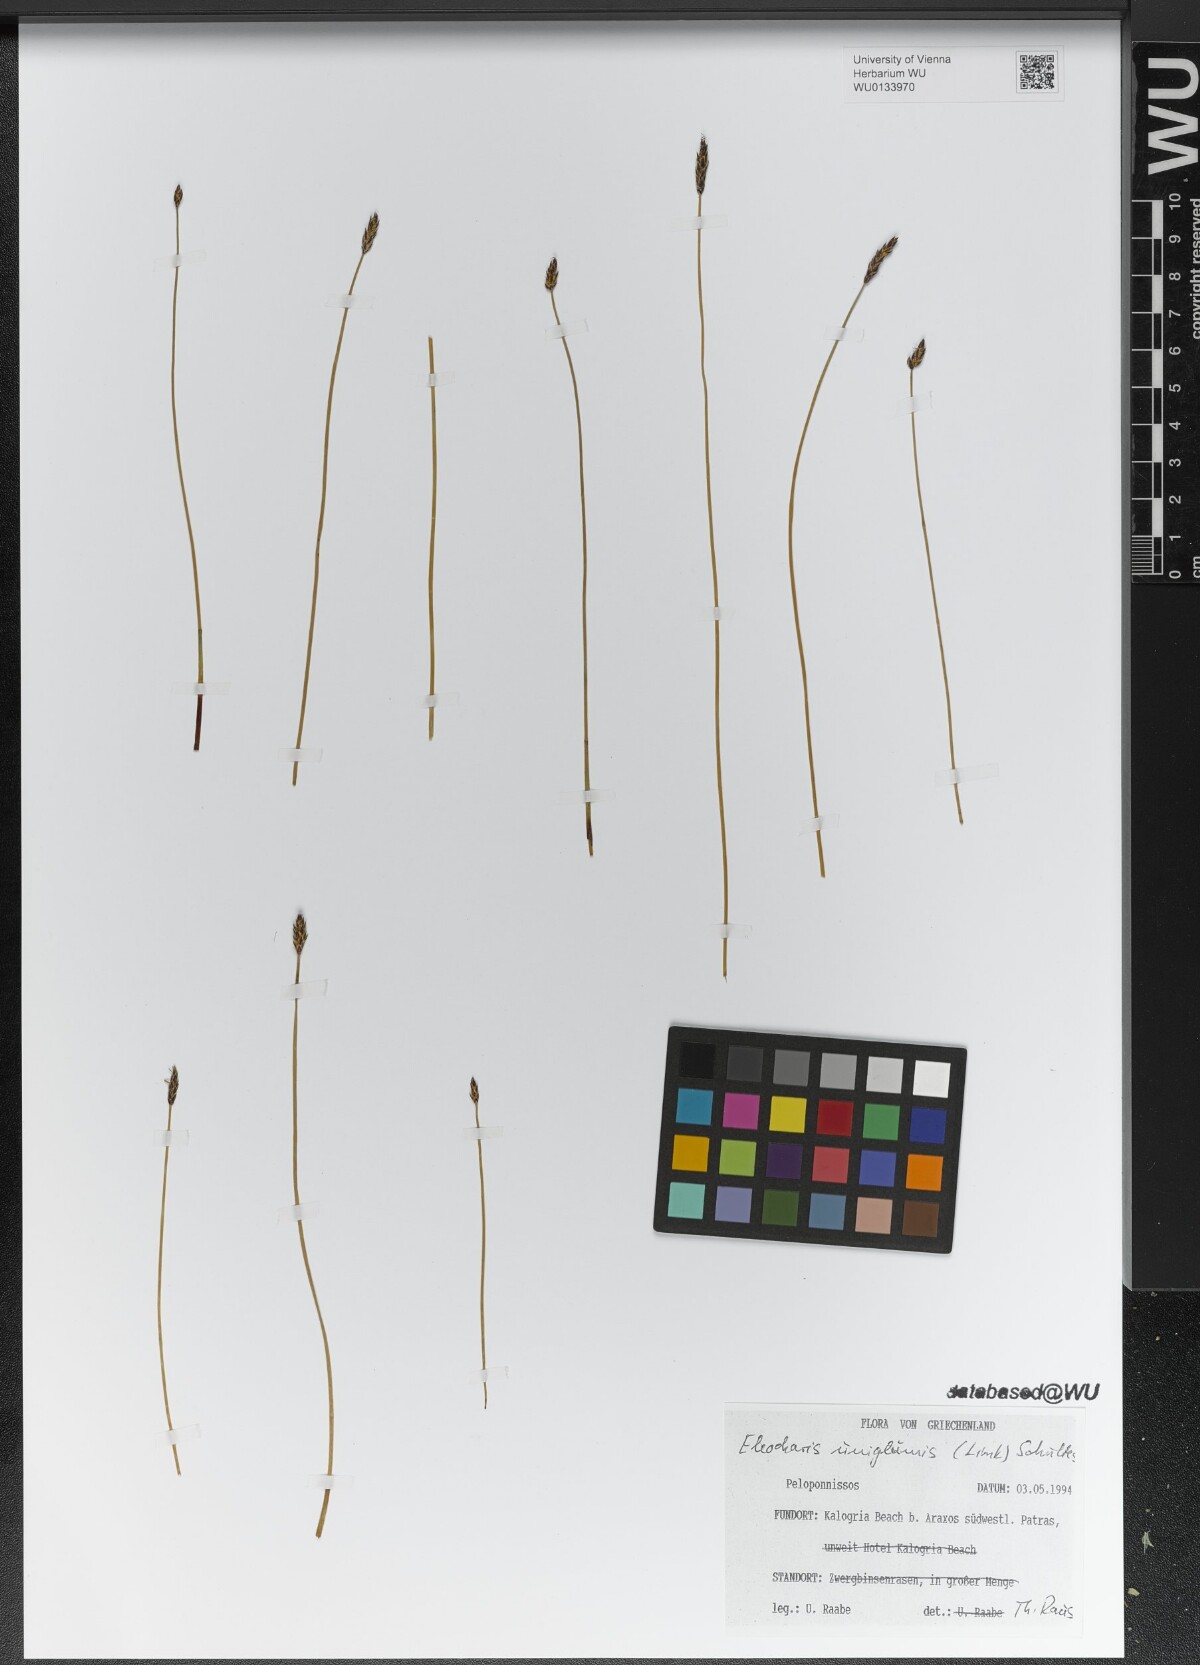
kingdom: Plantae
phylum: Tracheophyta
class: Liliopsida
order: Poales
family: Cyperaceae
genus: Eleocharis
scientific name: Eleocharis uniglumis
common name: Slender spike-rush
